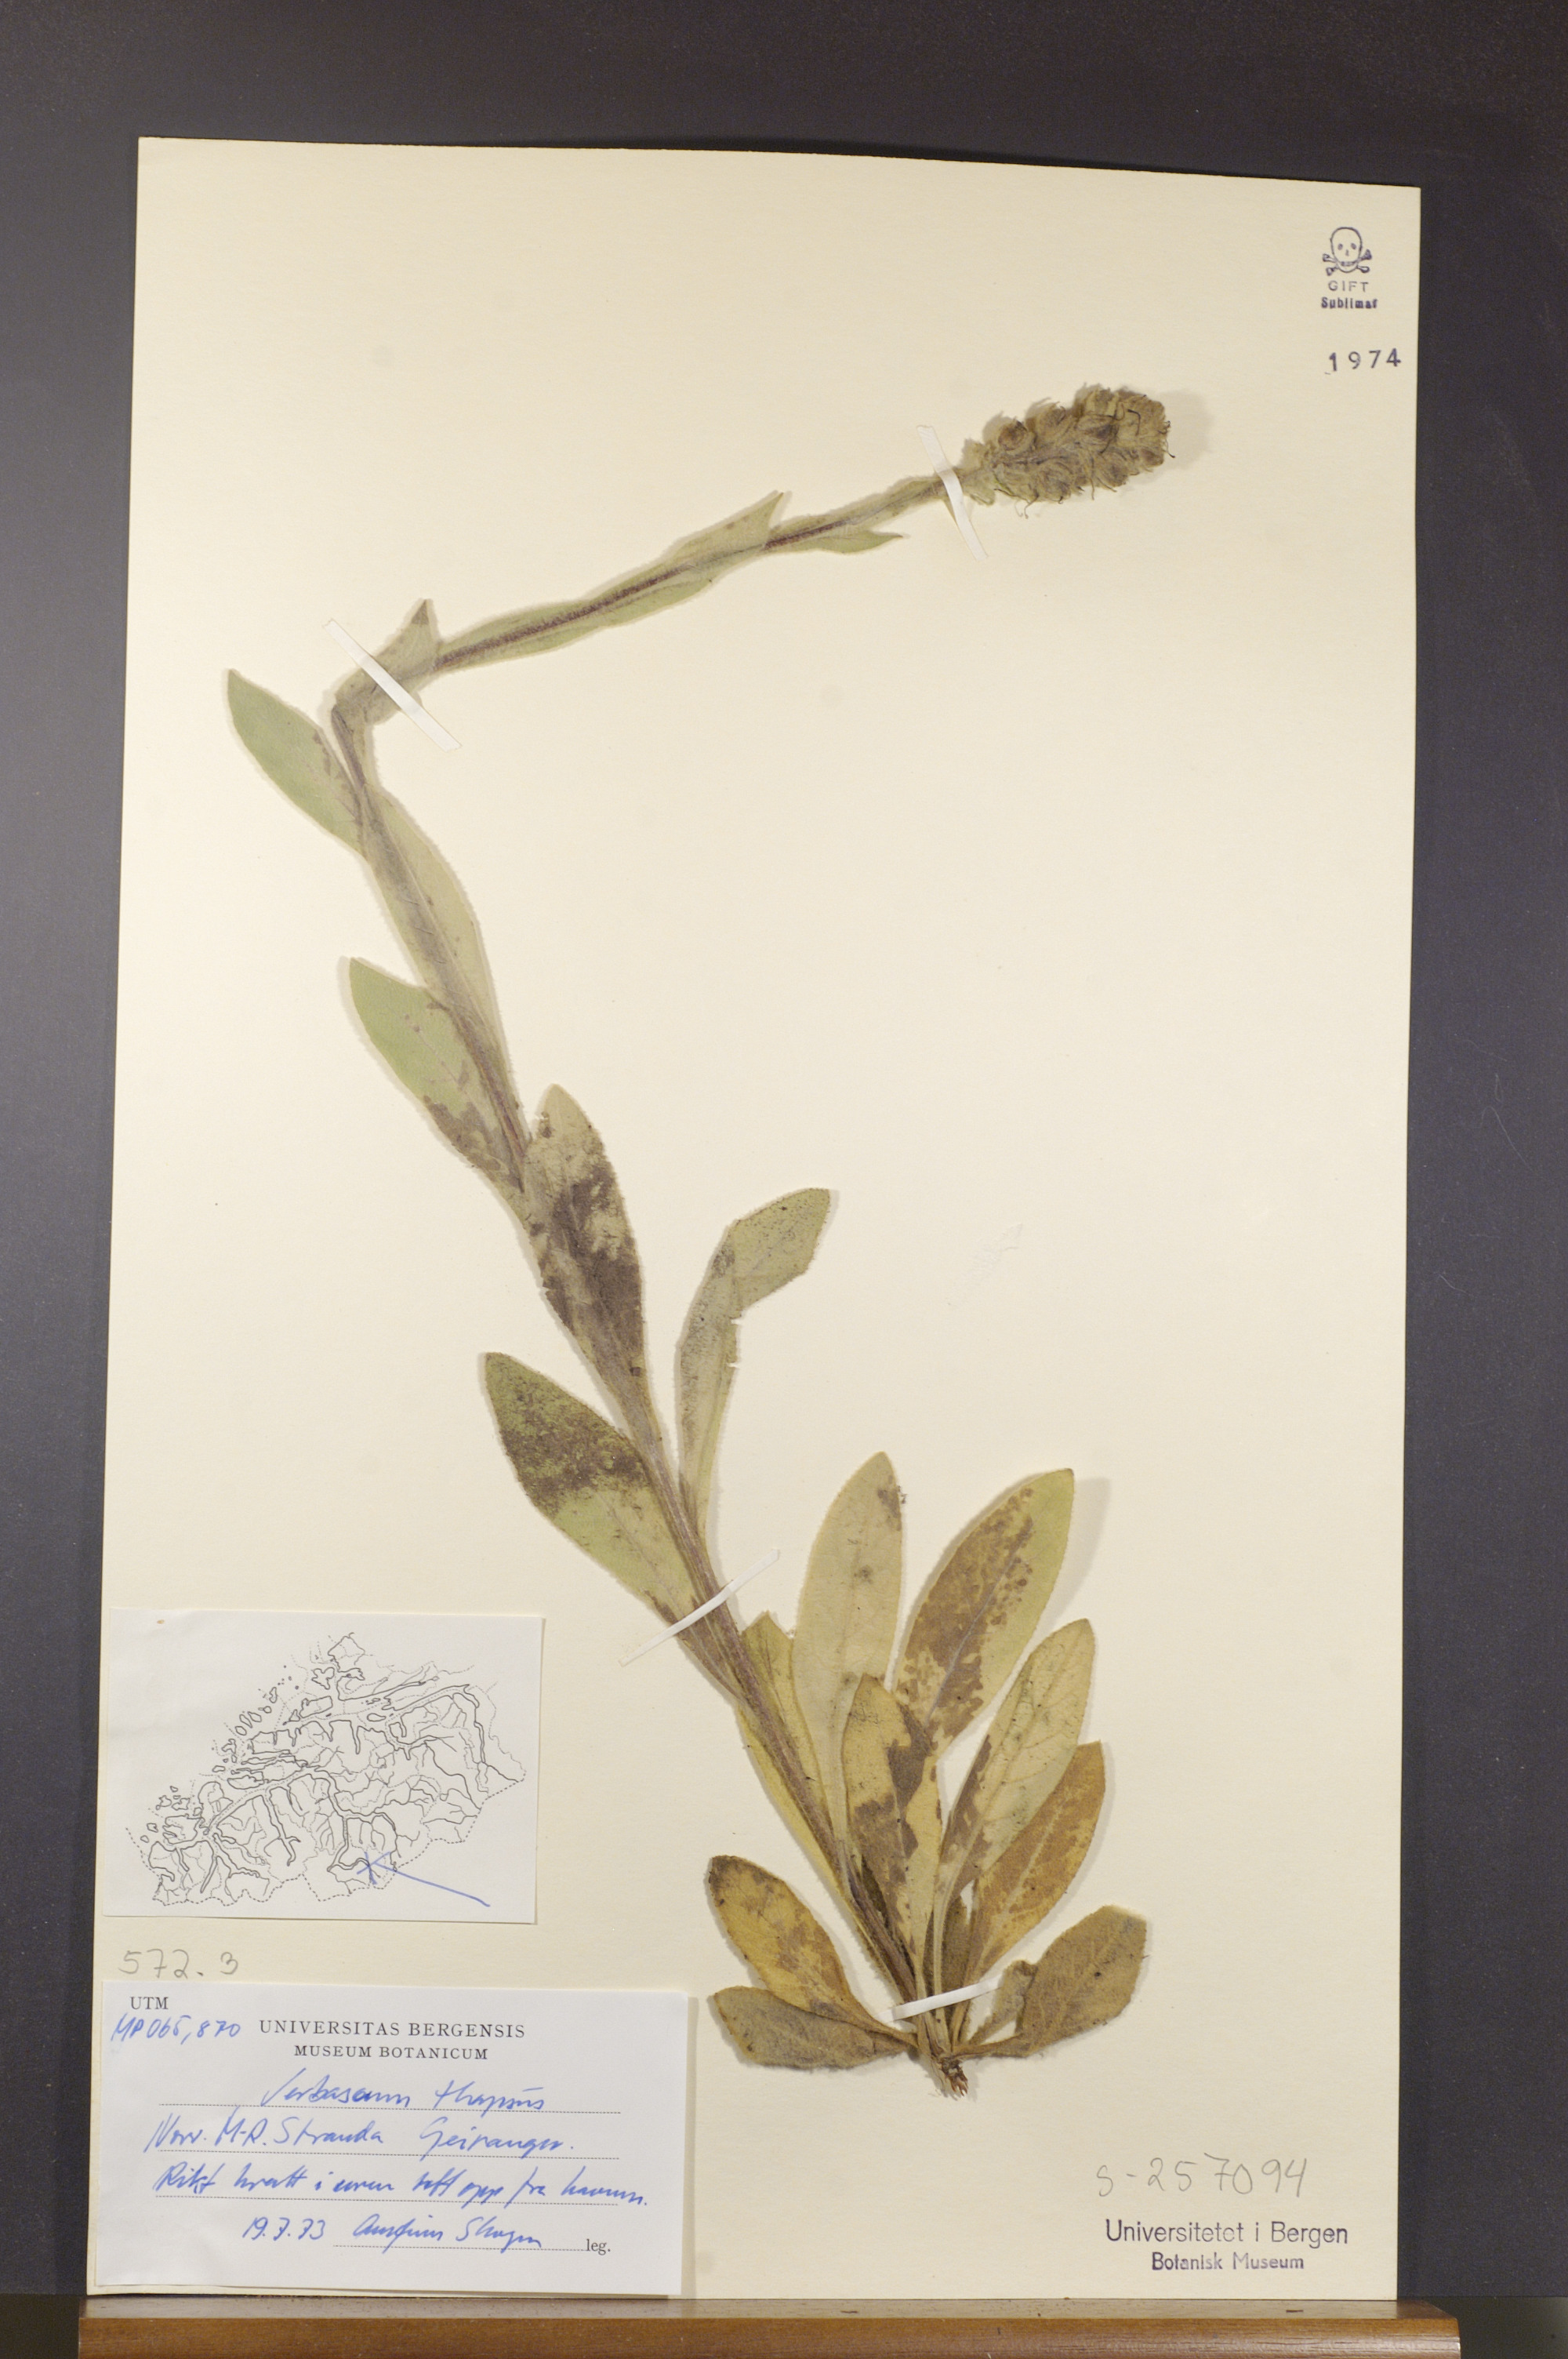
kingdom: Plantae
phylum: Tracheophyta
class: Magnoliopsida
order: Lamiales
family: Scrophulariaceae
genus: Verbascum
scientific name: Verbascum thapsus
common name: Common mullein
